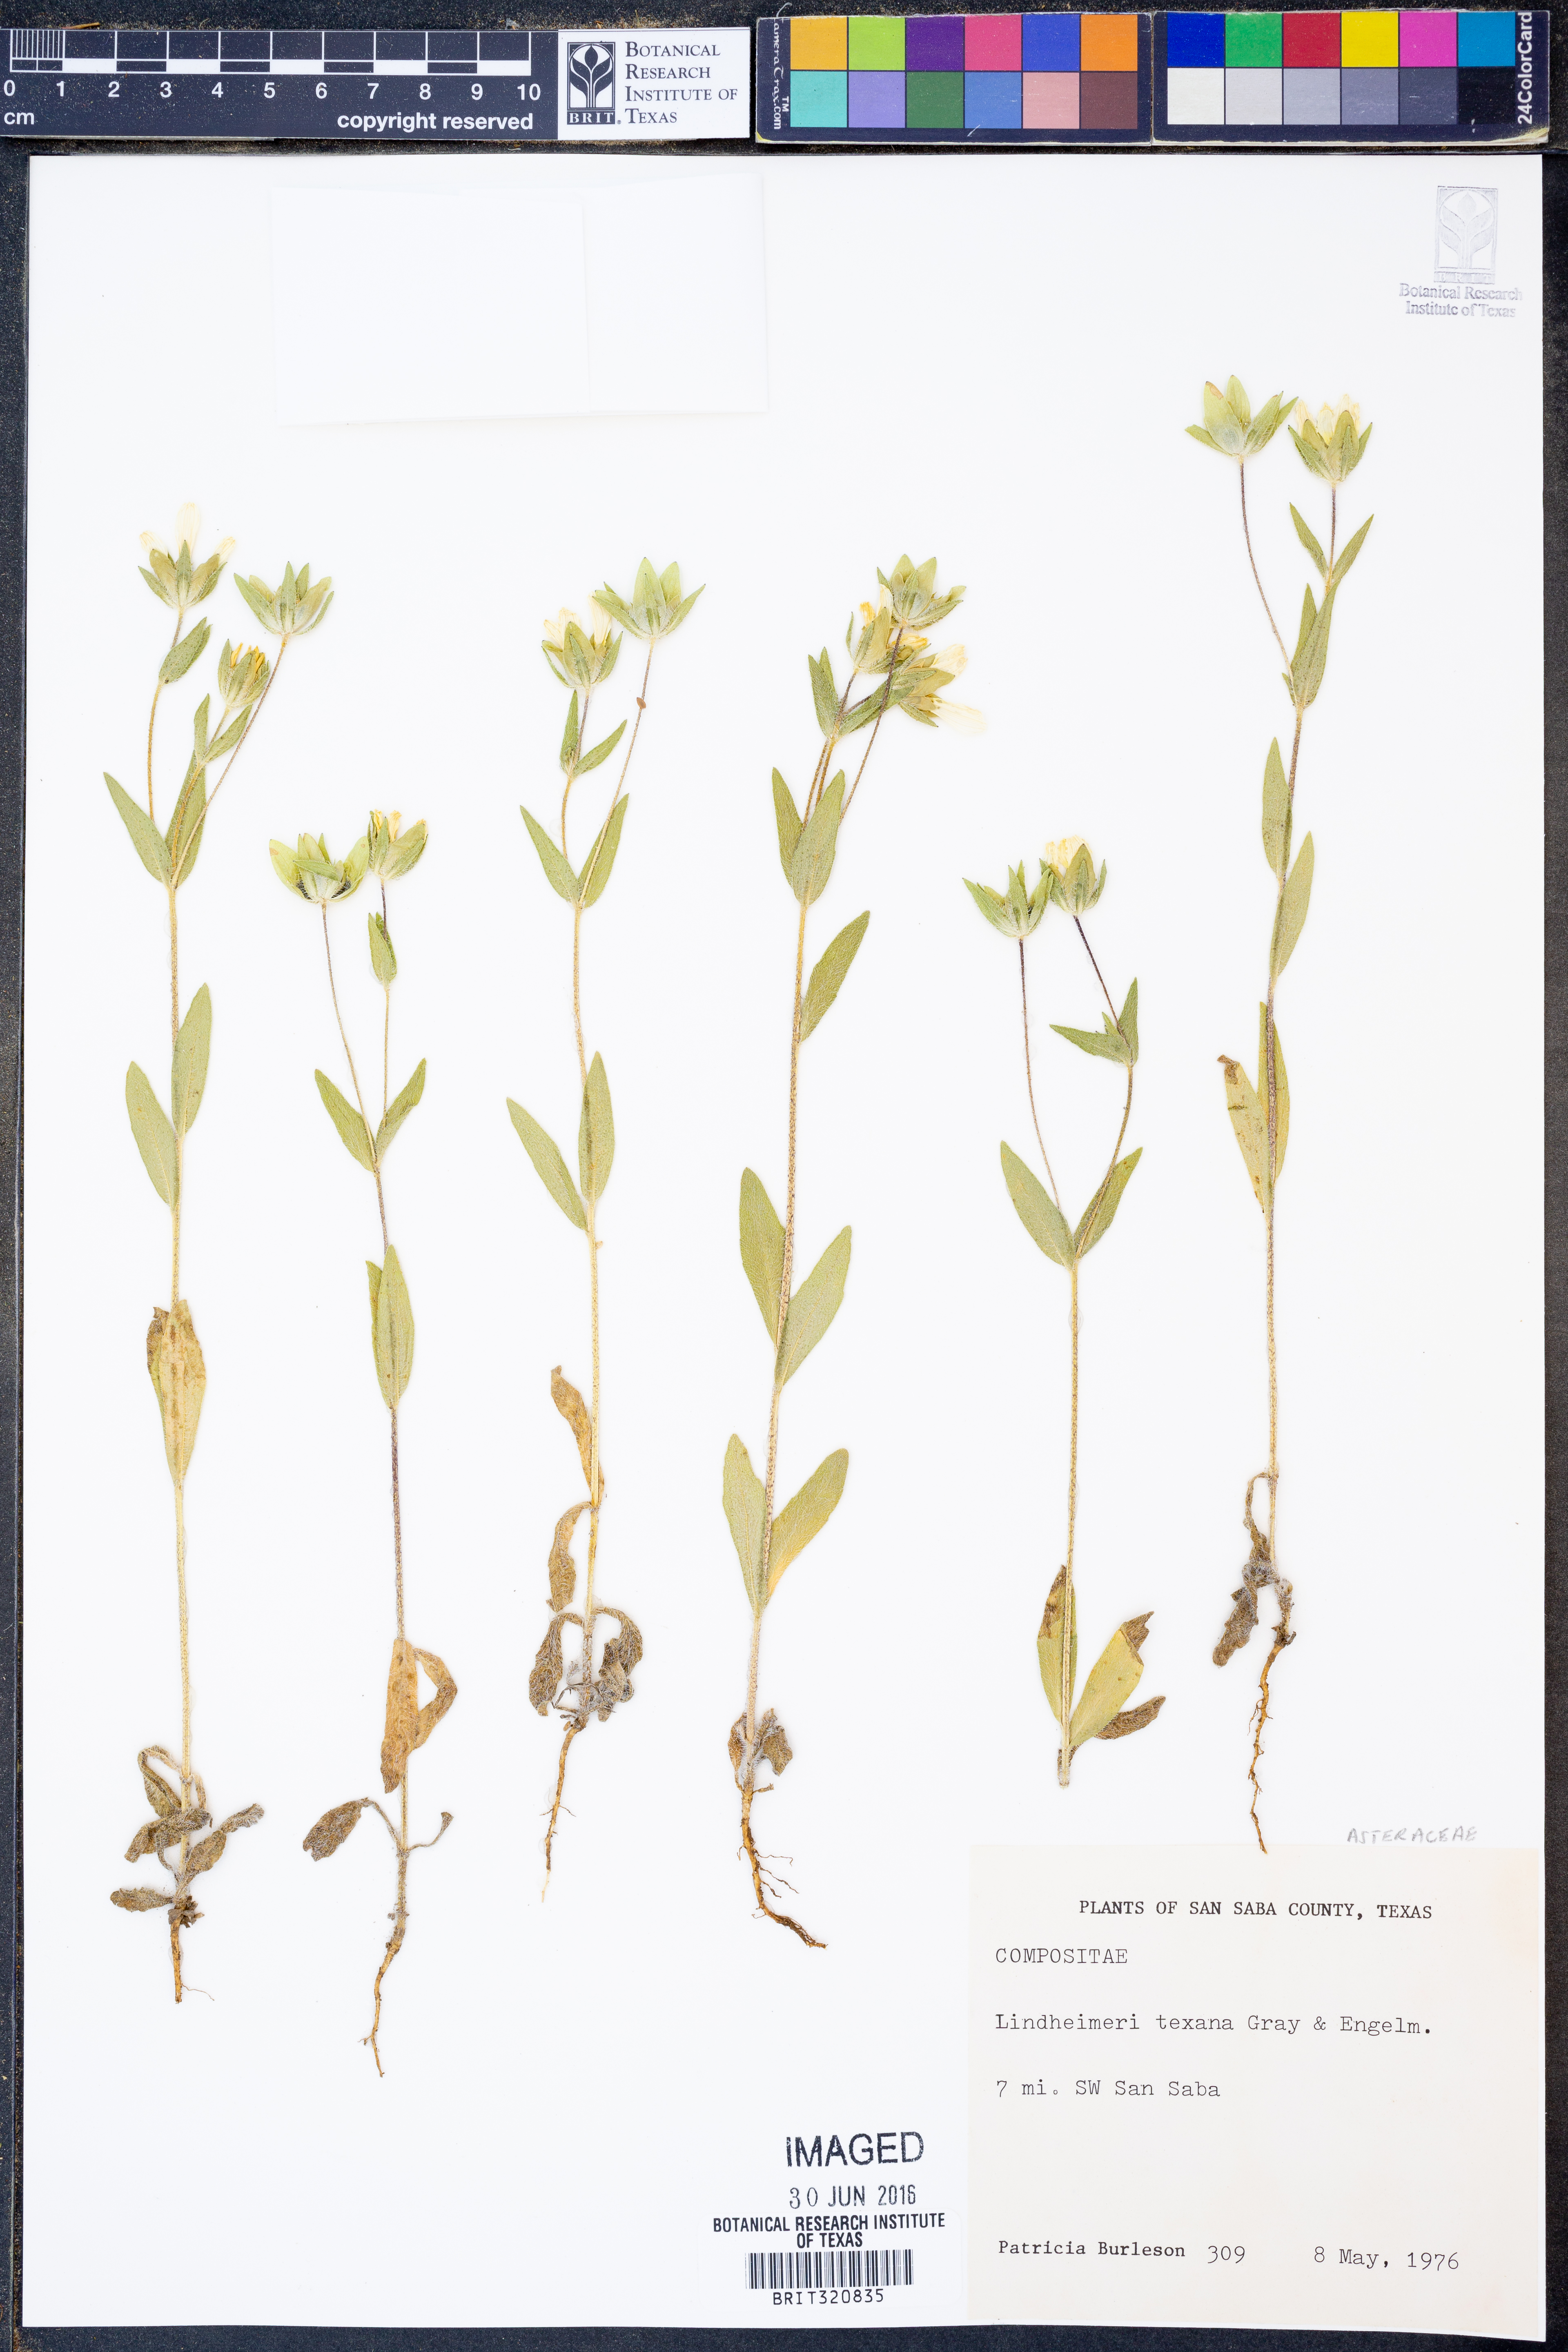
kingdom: Plantae
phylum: Tracheophyta
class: Magnoliopsida
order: Asterales
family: Asteraceae
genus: Lindheimera
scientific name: Lindheimera texana
